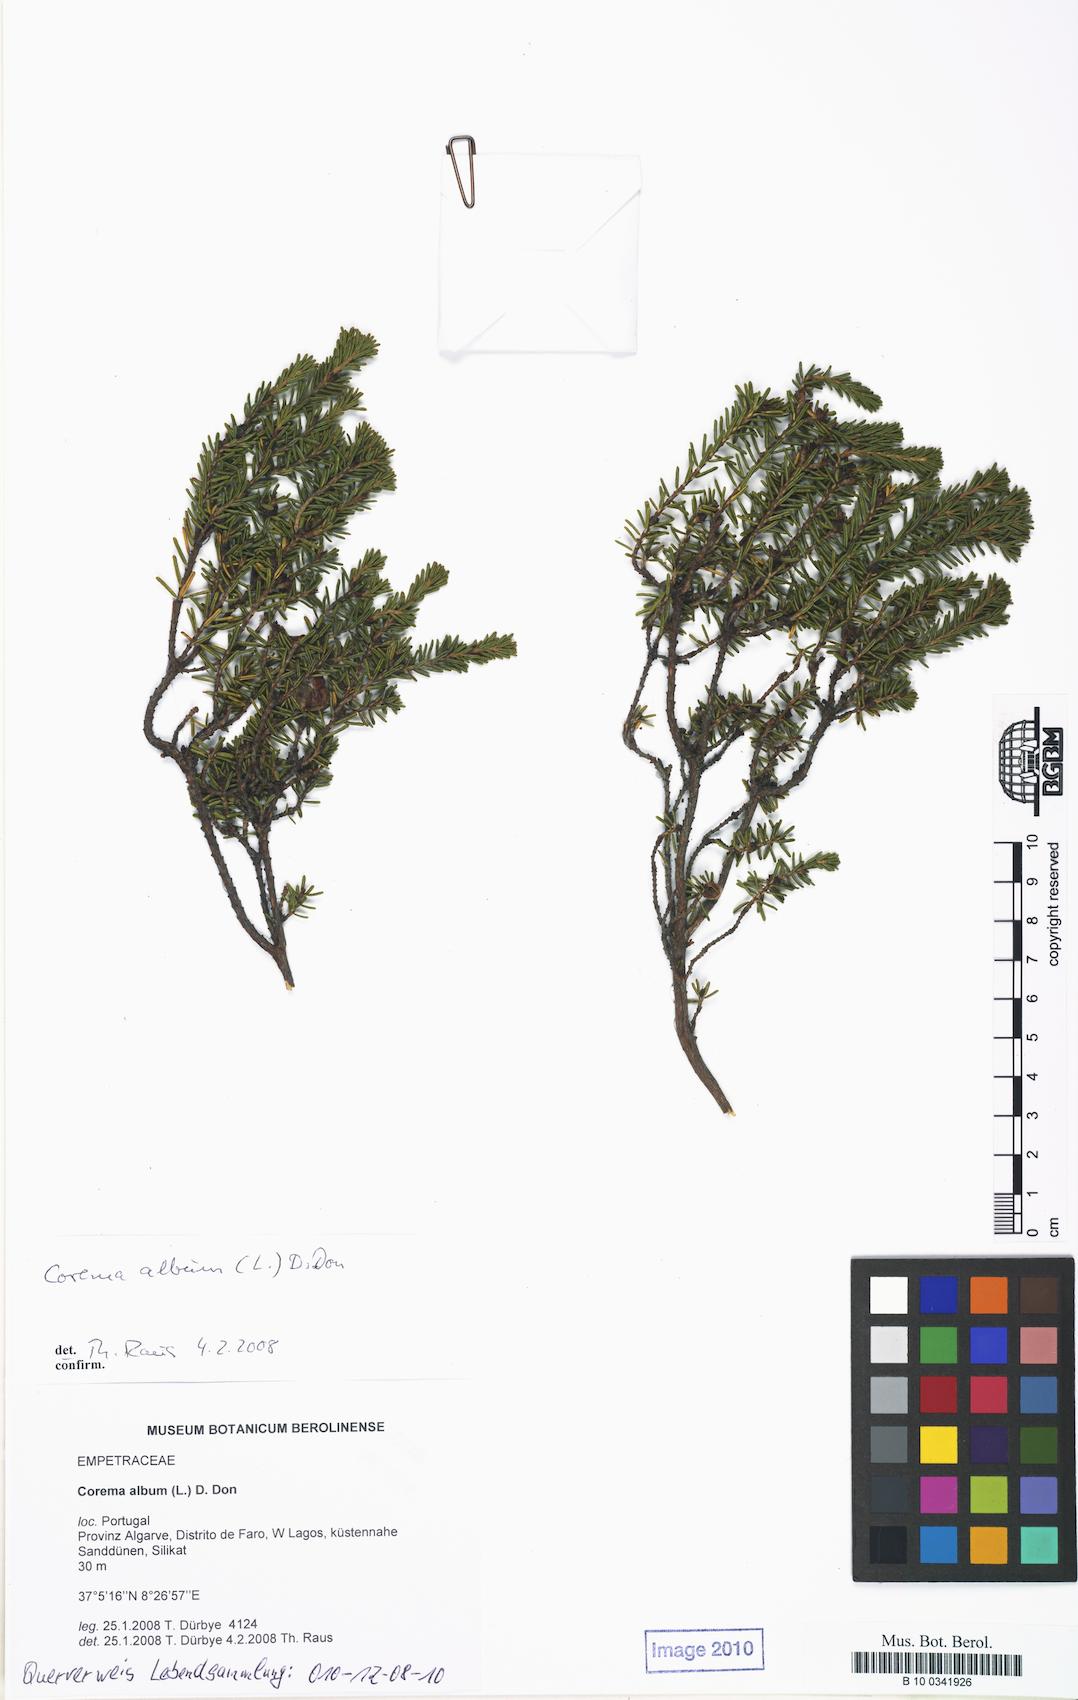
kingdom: Plantae
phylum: Tracheophyta
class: Magnoliopsida
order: Ericales
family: Ericaceae
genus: Corema
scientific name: Corema album
